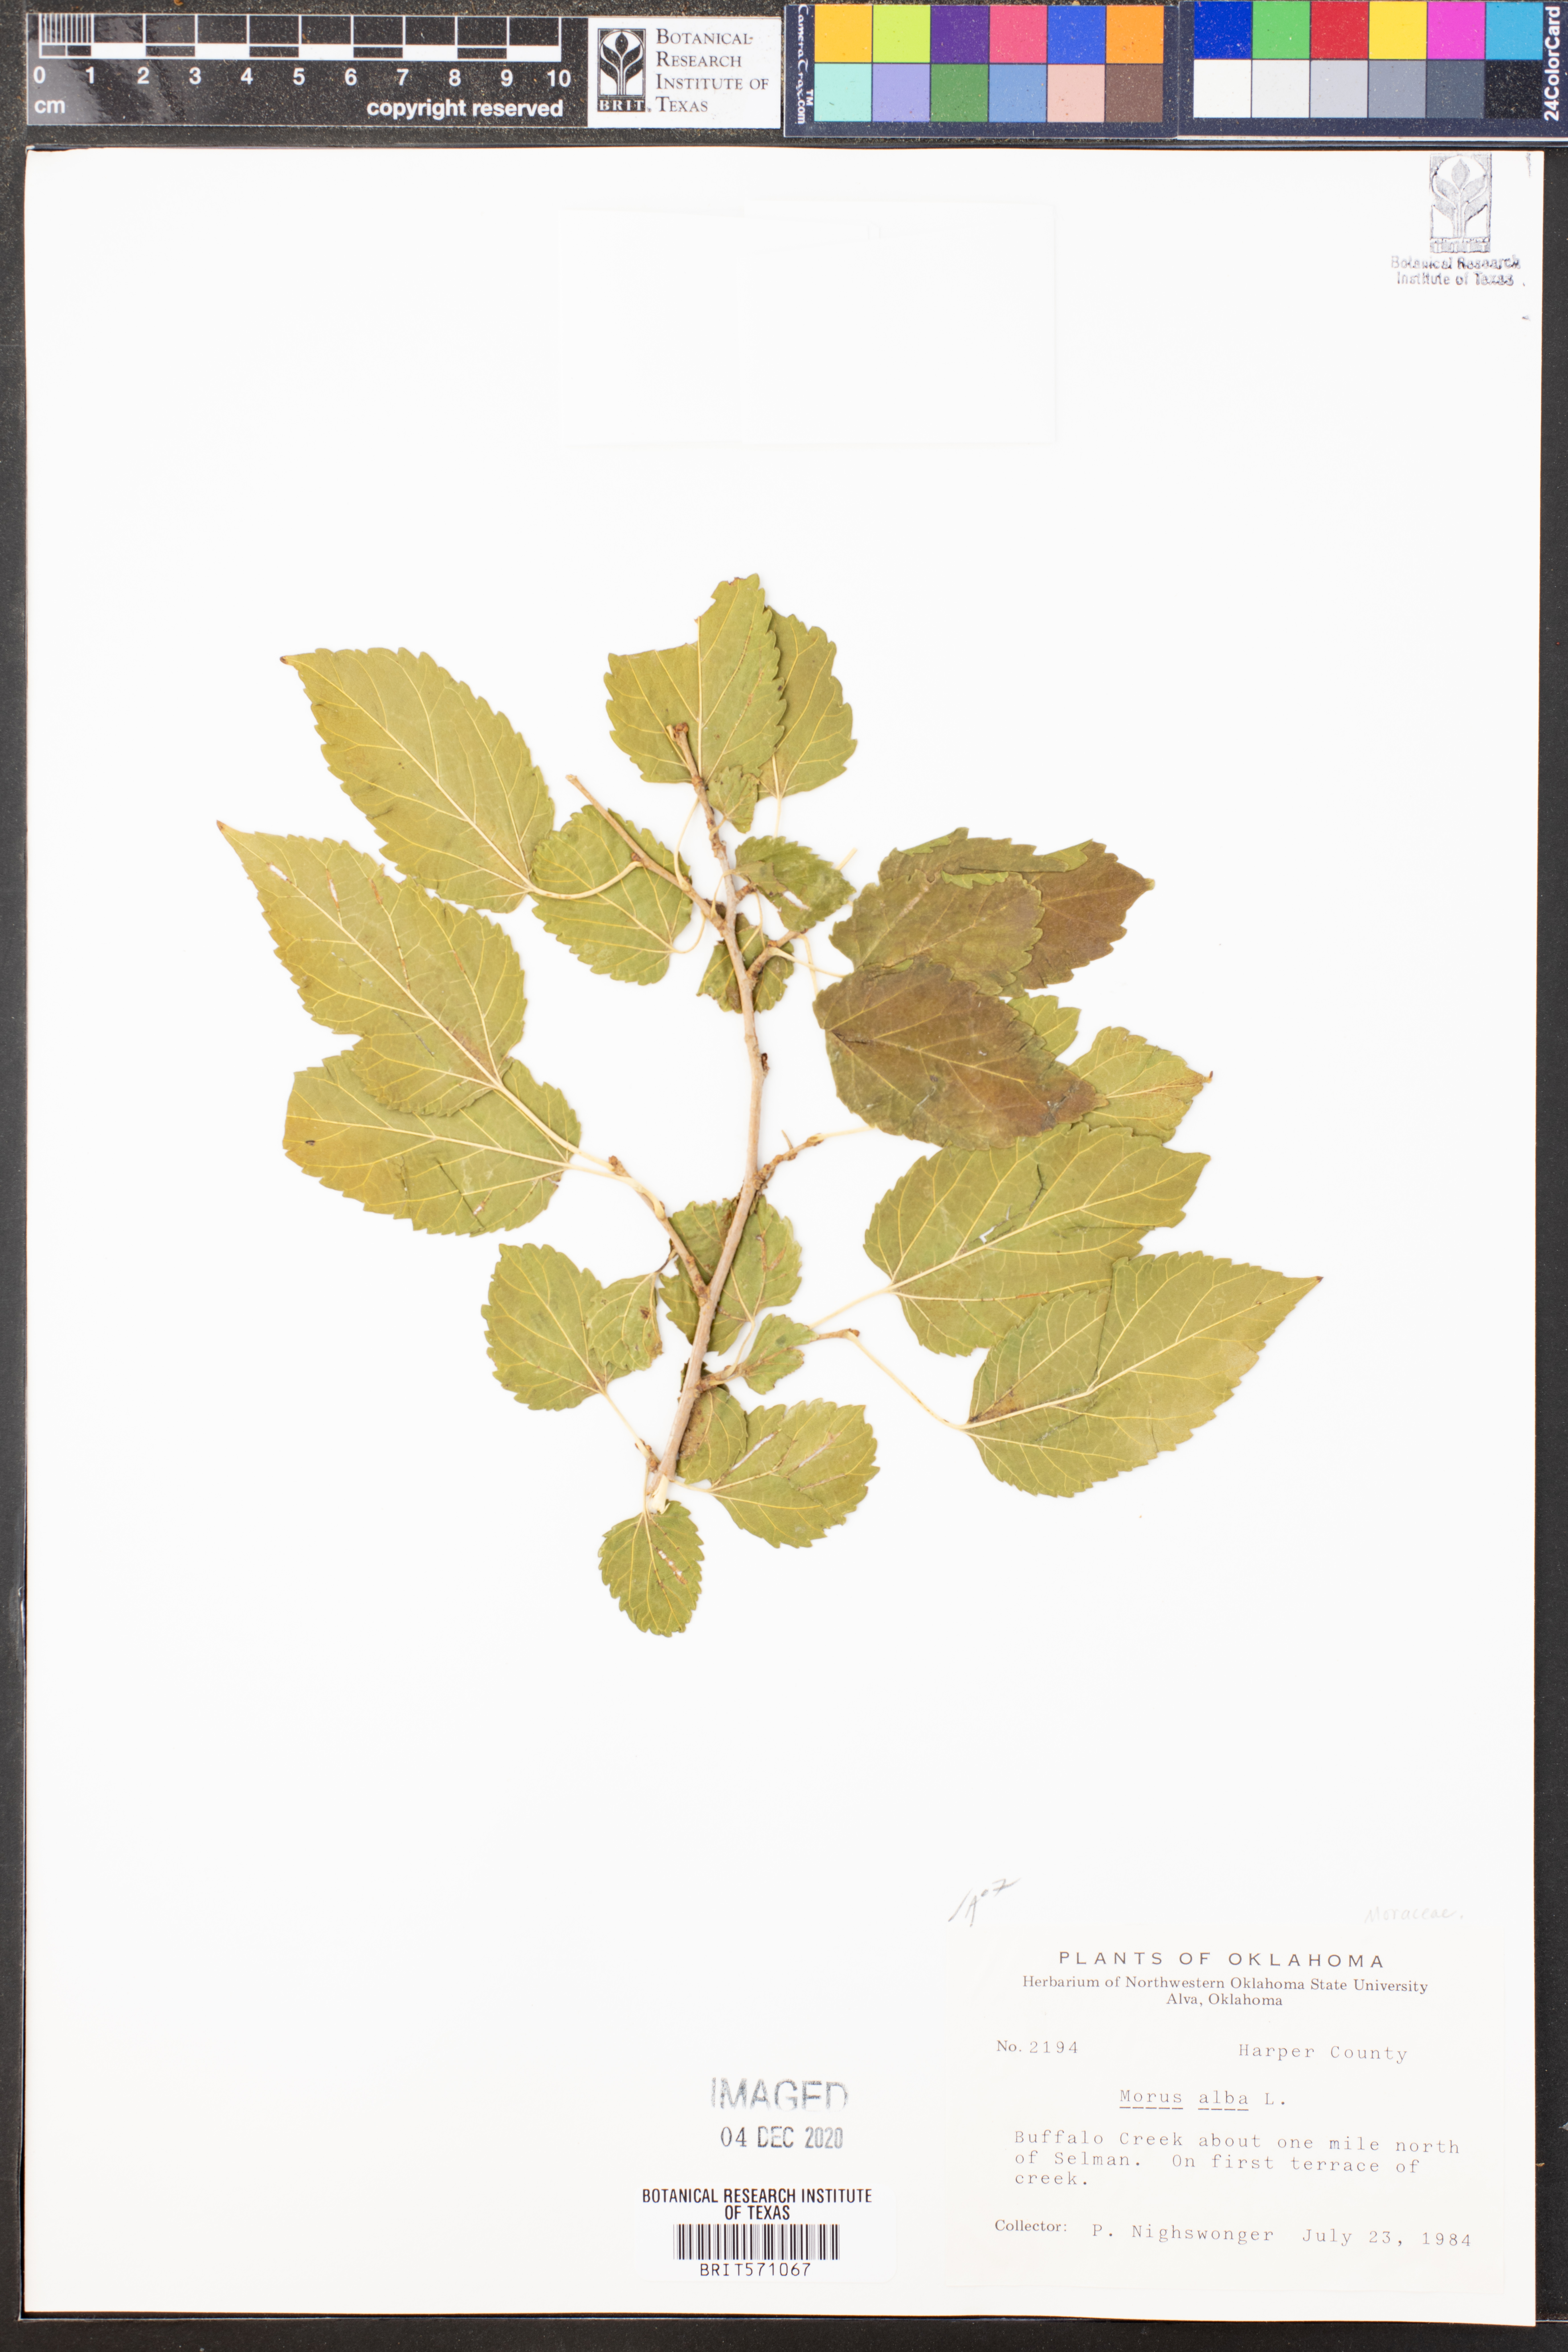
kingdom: Plantae
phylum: Tracheophyta
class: Magnoliopsida
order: Rosales
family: Moraceae
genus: Morus
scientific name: Morus alba
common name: White mulberry
